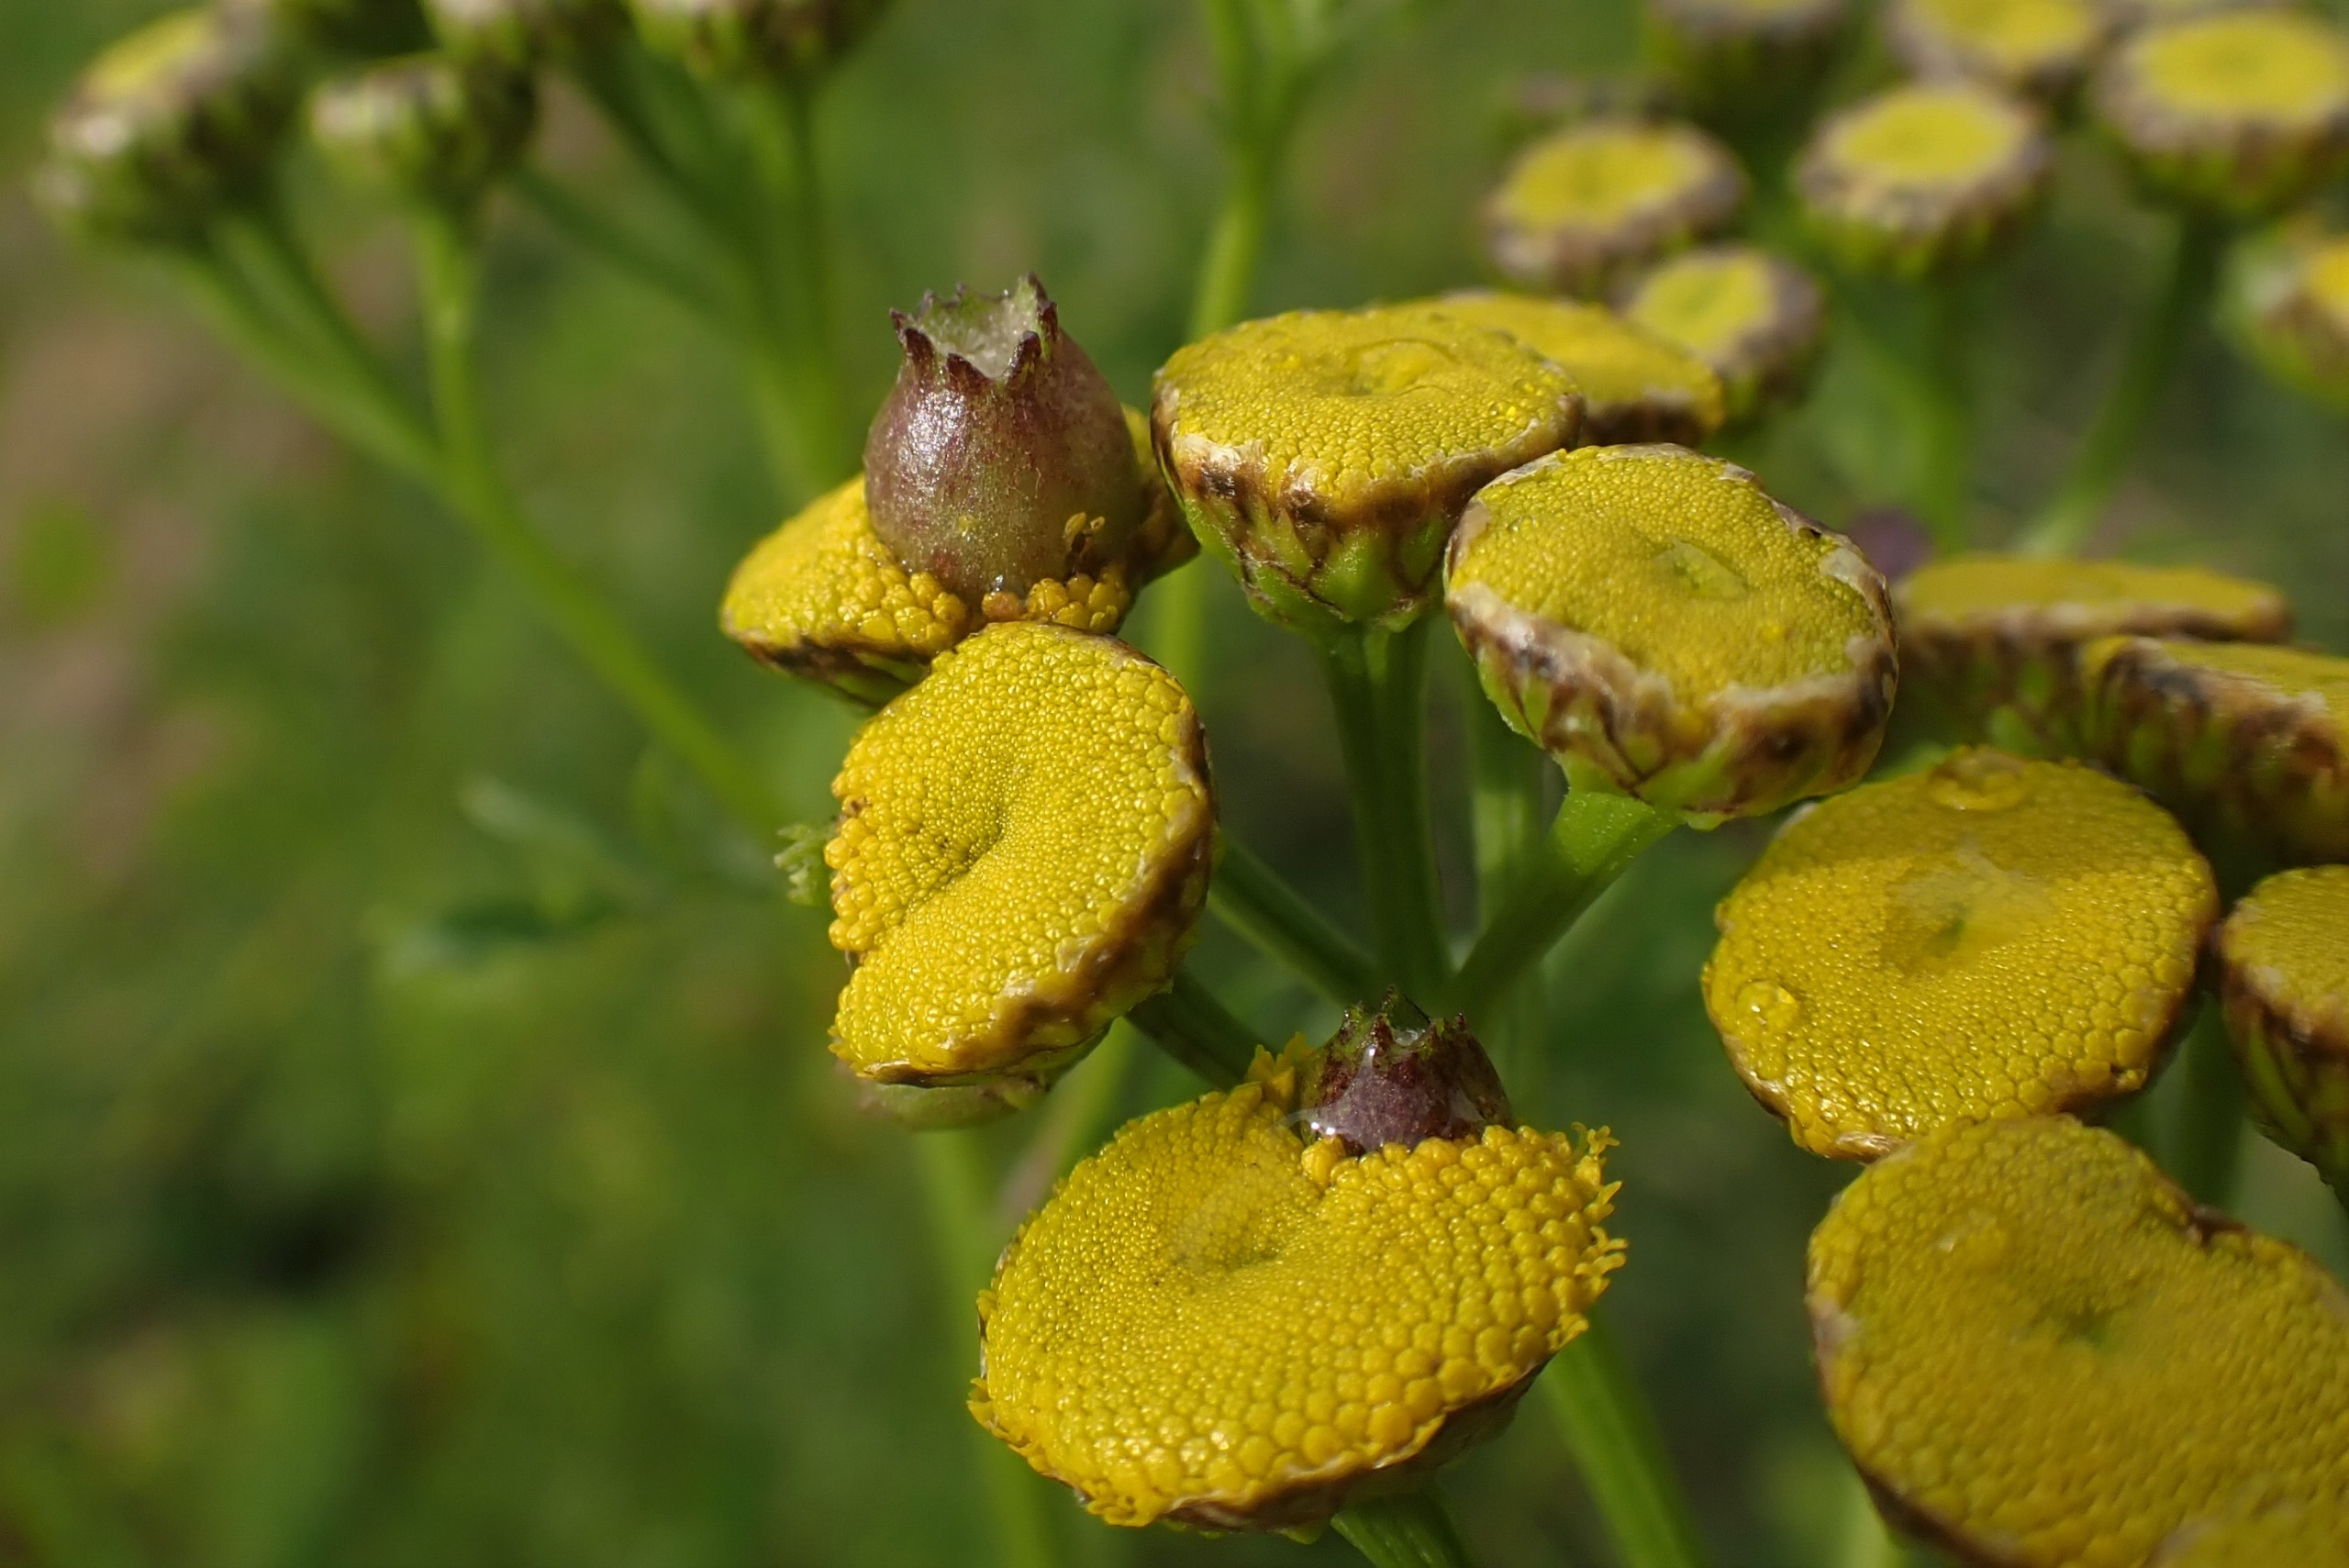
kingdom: Animalia
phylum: Arthropoda
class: Insecta
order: Diptera
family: Cecidomyiidae
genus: Rhopalomyia
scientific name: Rhopalomyia tanaceticolus
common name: Rejnfangalmyg
